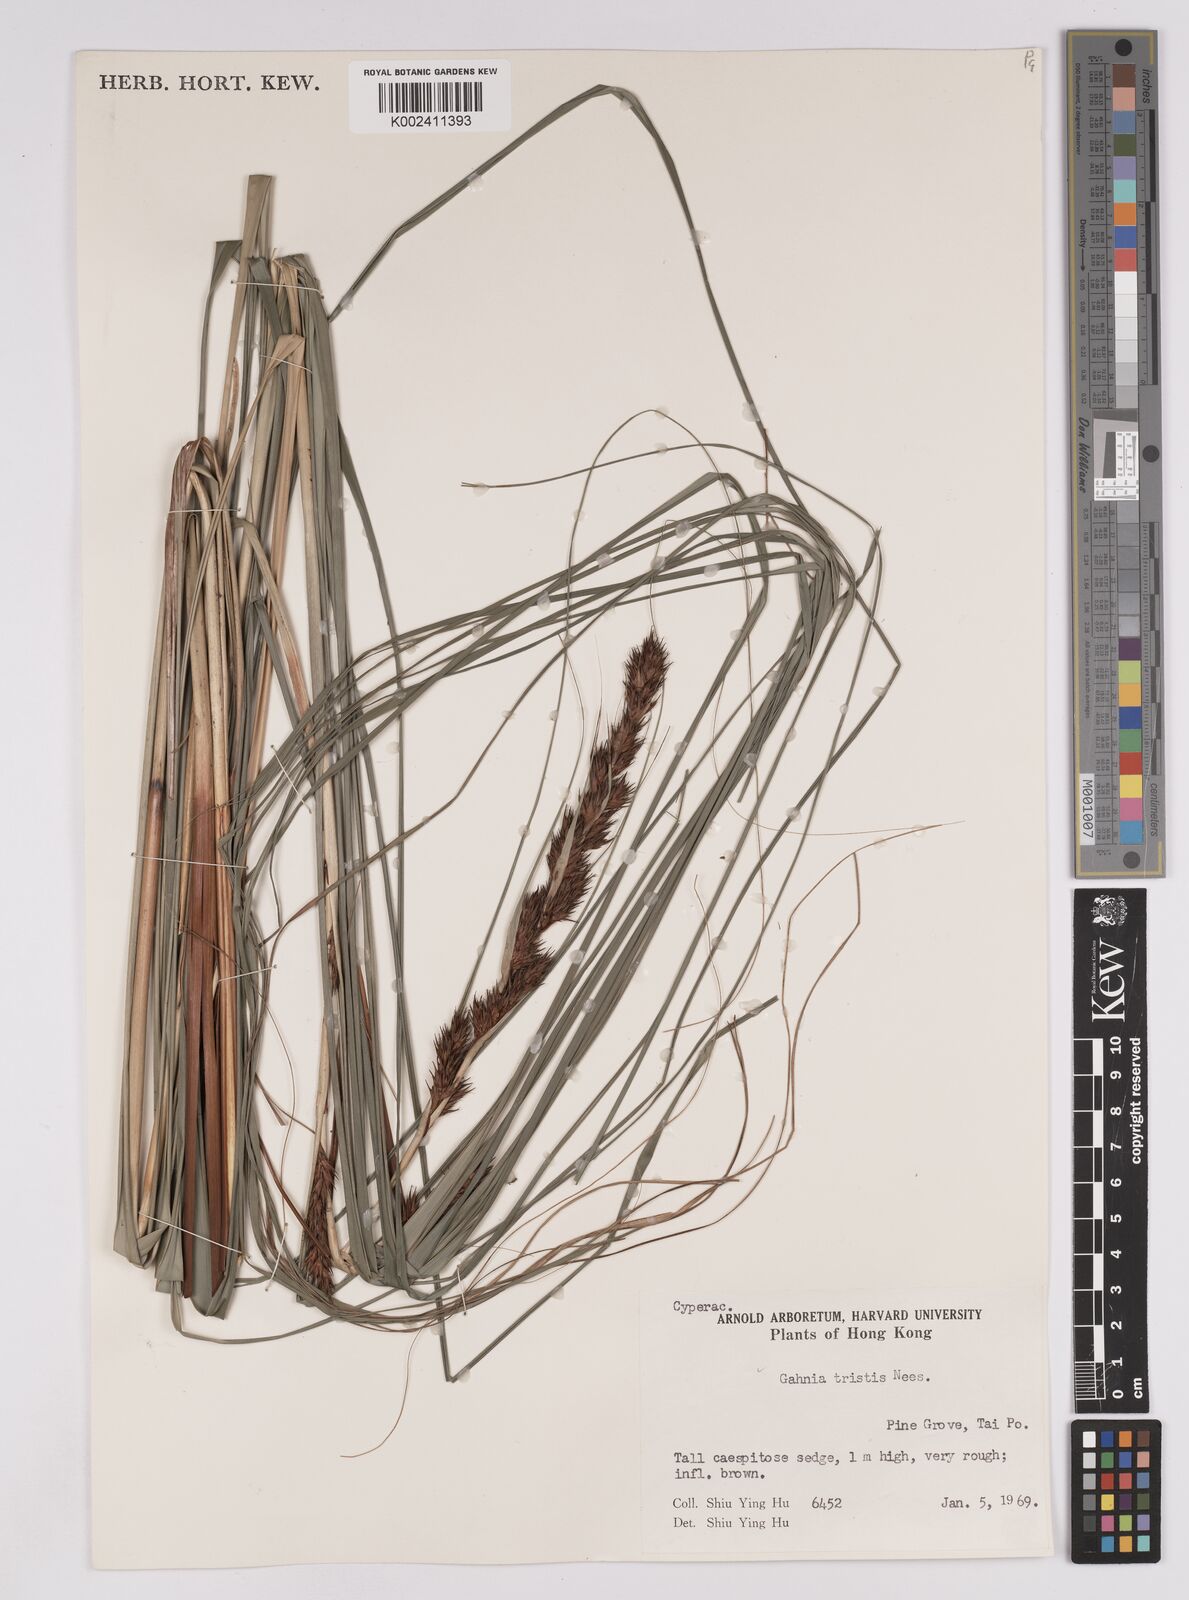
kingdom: Plantae
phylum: Tracheophyta
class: Liliopsida
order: Poales
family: Cyperaceae
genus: Gahnia
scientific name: Gahnia tristis
